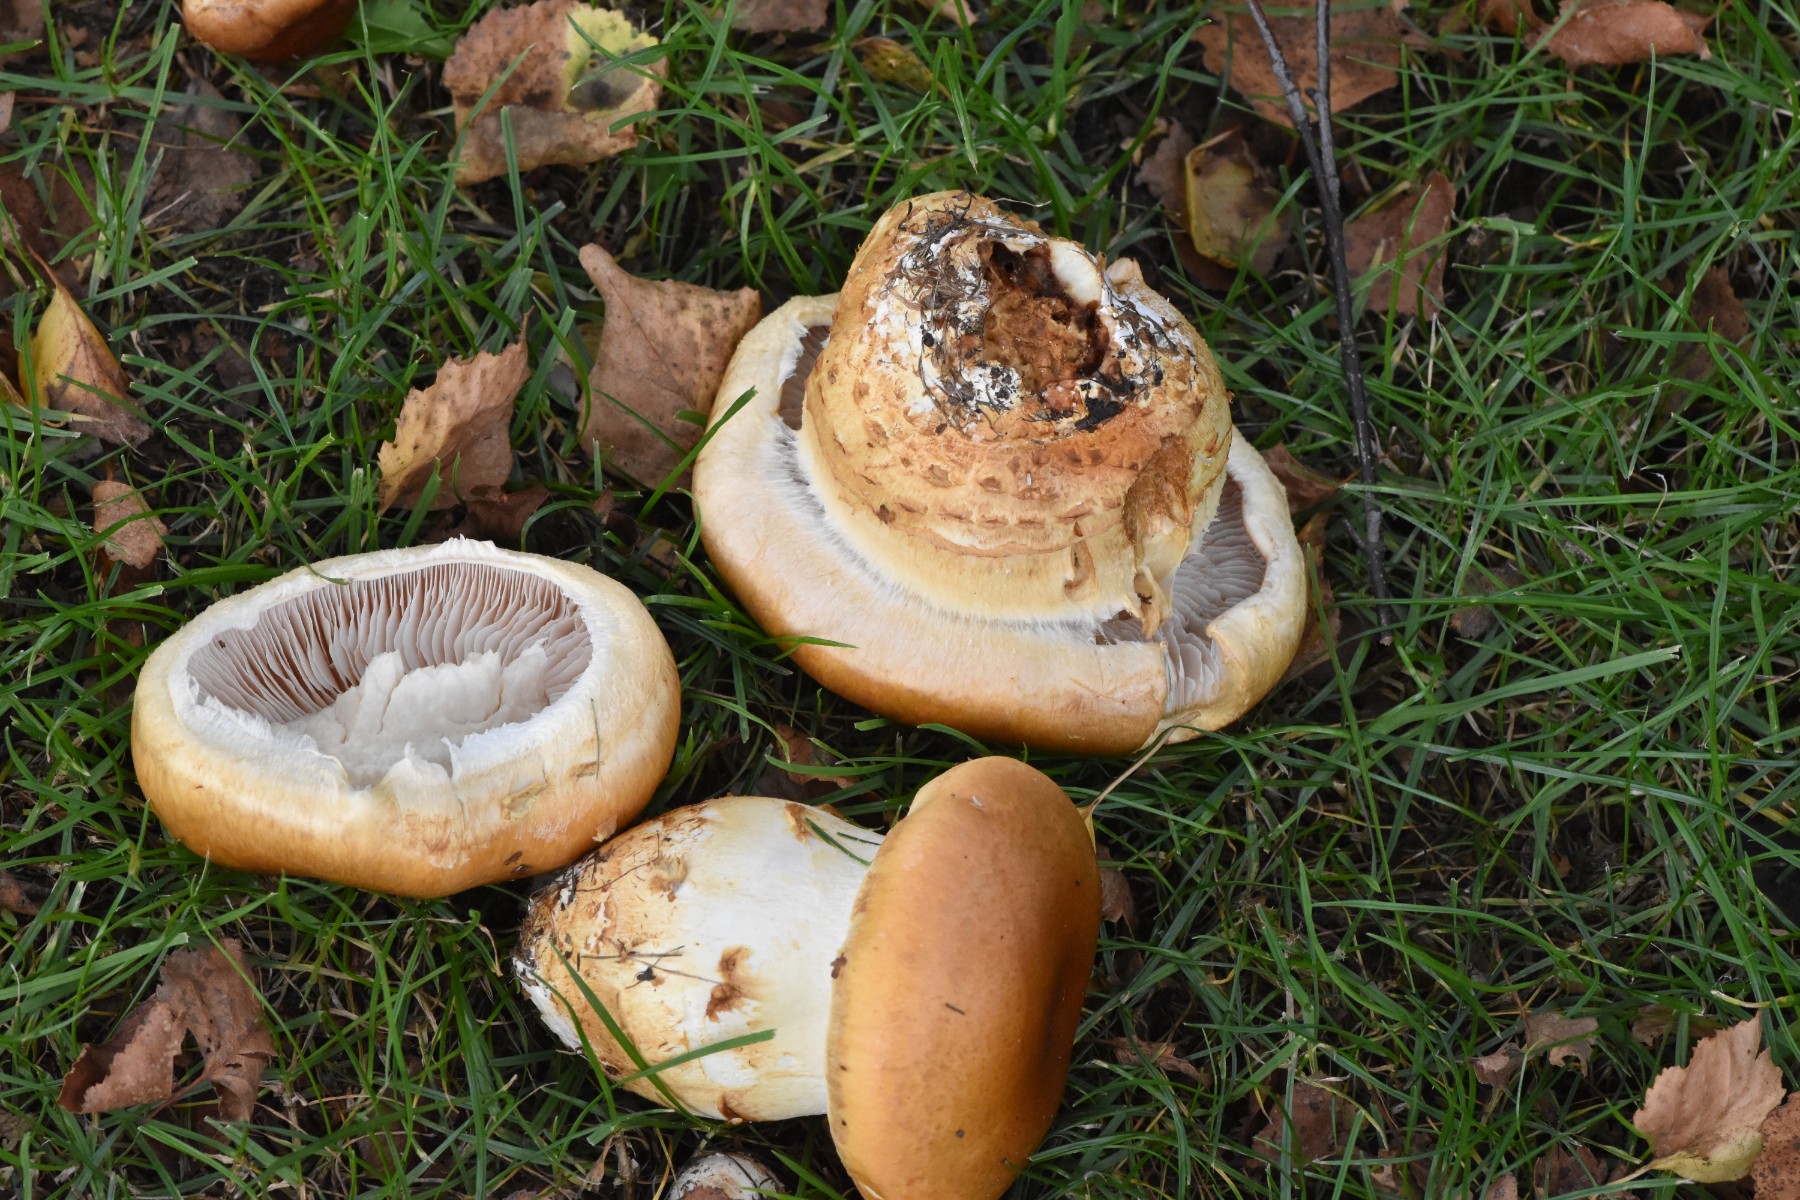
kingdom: Fungi
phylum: Basidiomycota
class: Agaricomycetes
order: Agaricales
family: Cortinariaceae
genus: Phlegmacium
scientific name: Phlegmacium triumphans
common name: gulbæltet slørhat
